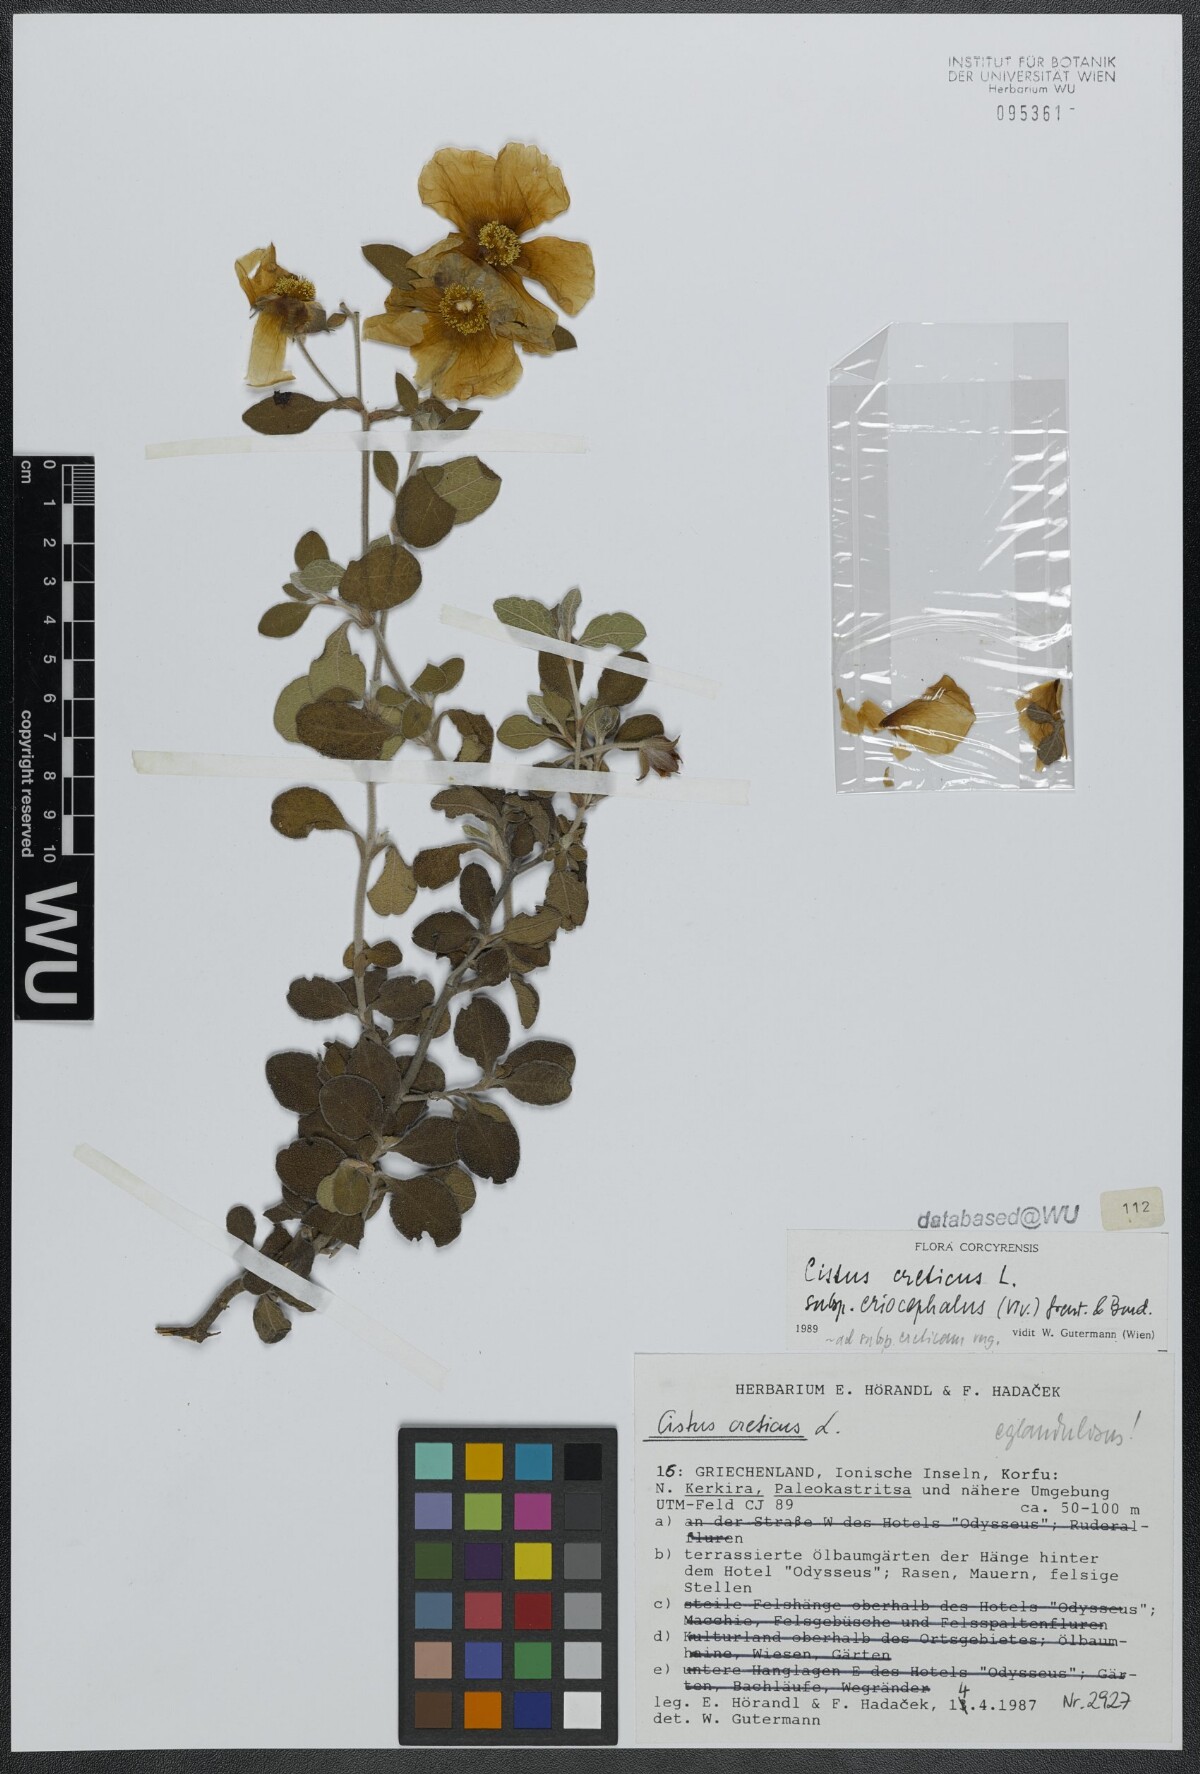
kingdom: Plantae
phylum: Tracheophyta
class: Magnoliopsida
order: Malvales
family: Cistaceae
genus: Cistus
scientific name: Cistus tauricus
